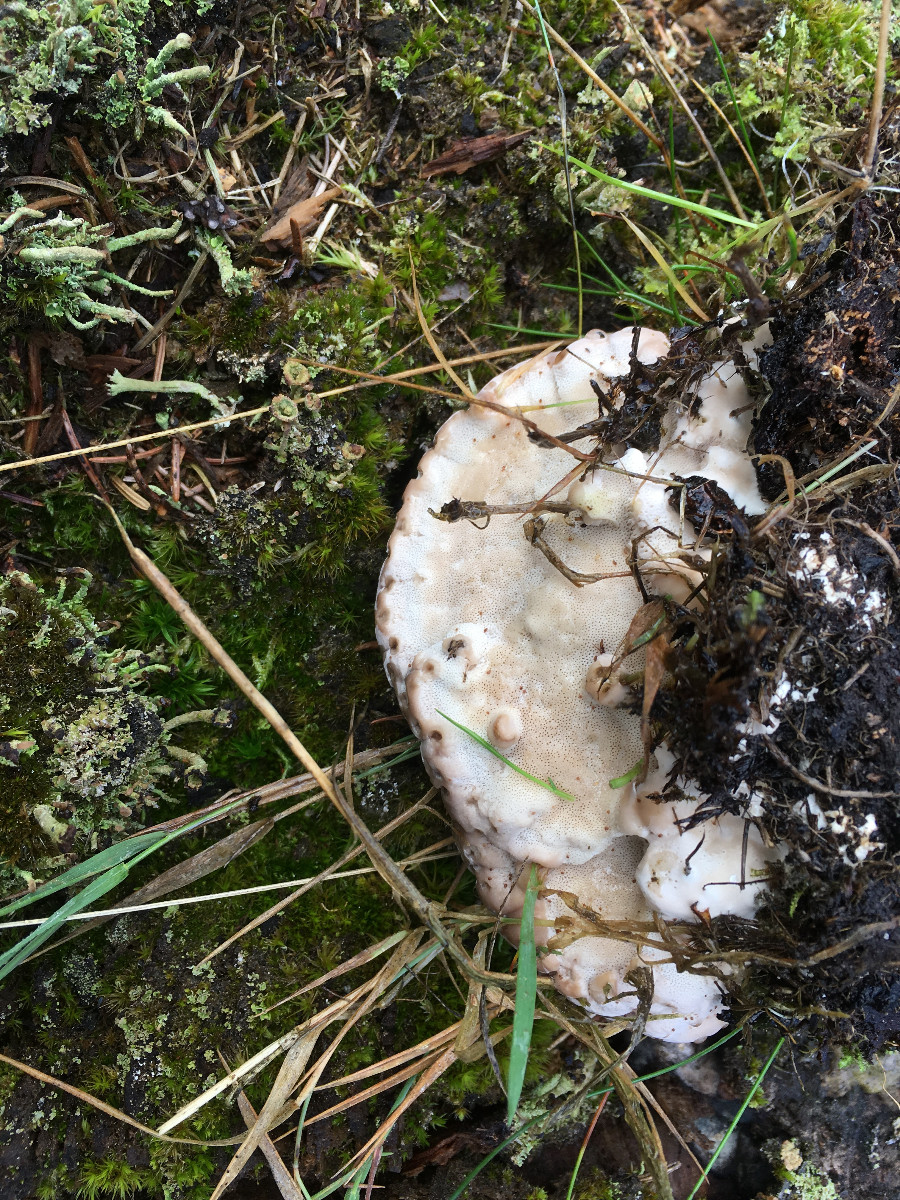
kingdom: Fungi
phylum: Basidiomycota
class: Agaricomycetes
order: Polyporales
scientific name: Polyporales
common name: poresvampordenen
